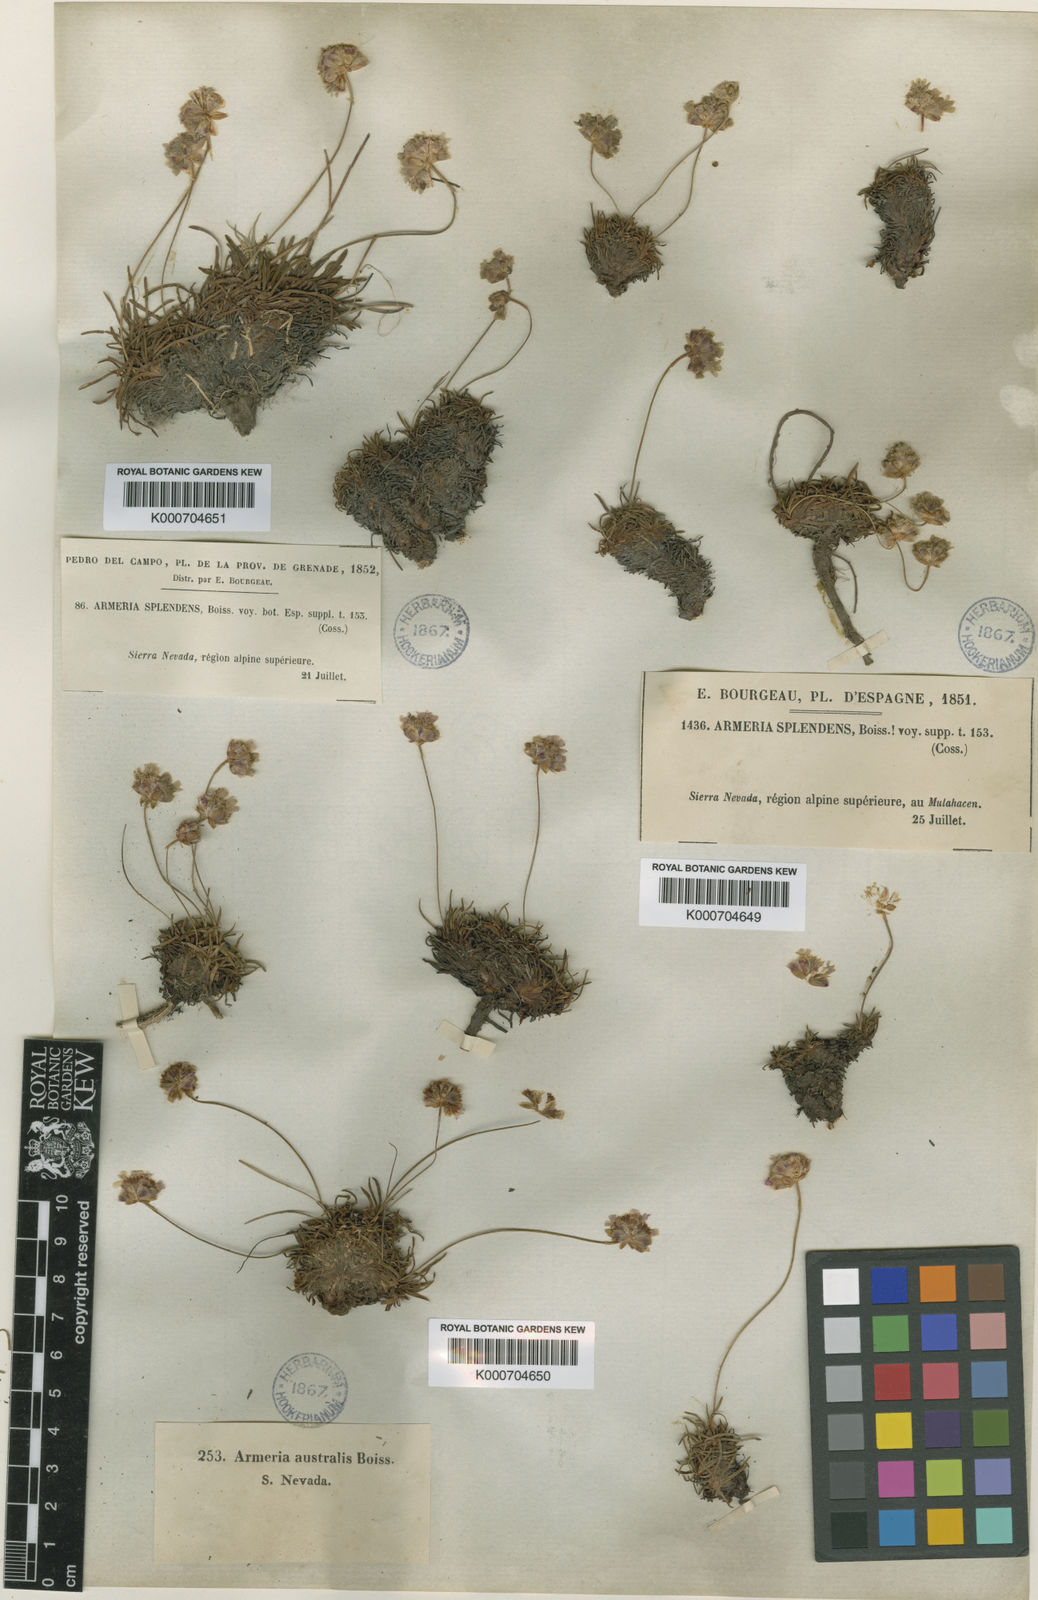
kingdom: Plantae
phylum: Tracheophyta
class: Magnoliopsida
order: Caryophyllales
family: Plumbaginaceae
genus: Armeria
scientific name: Armeria
